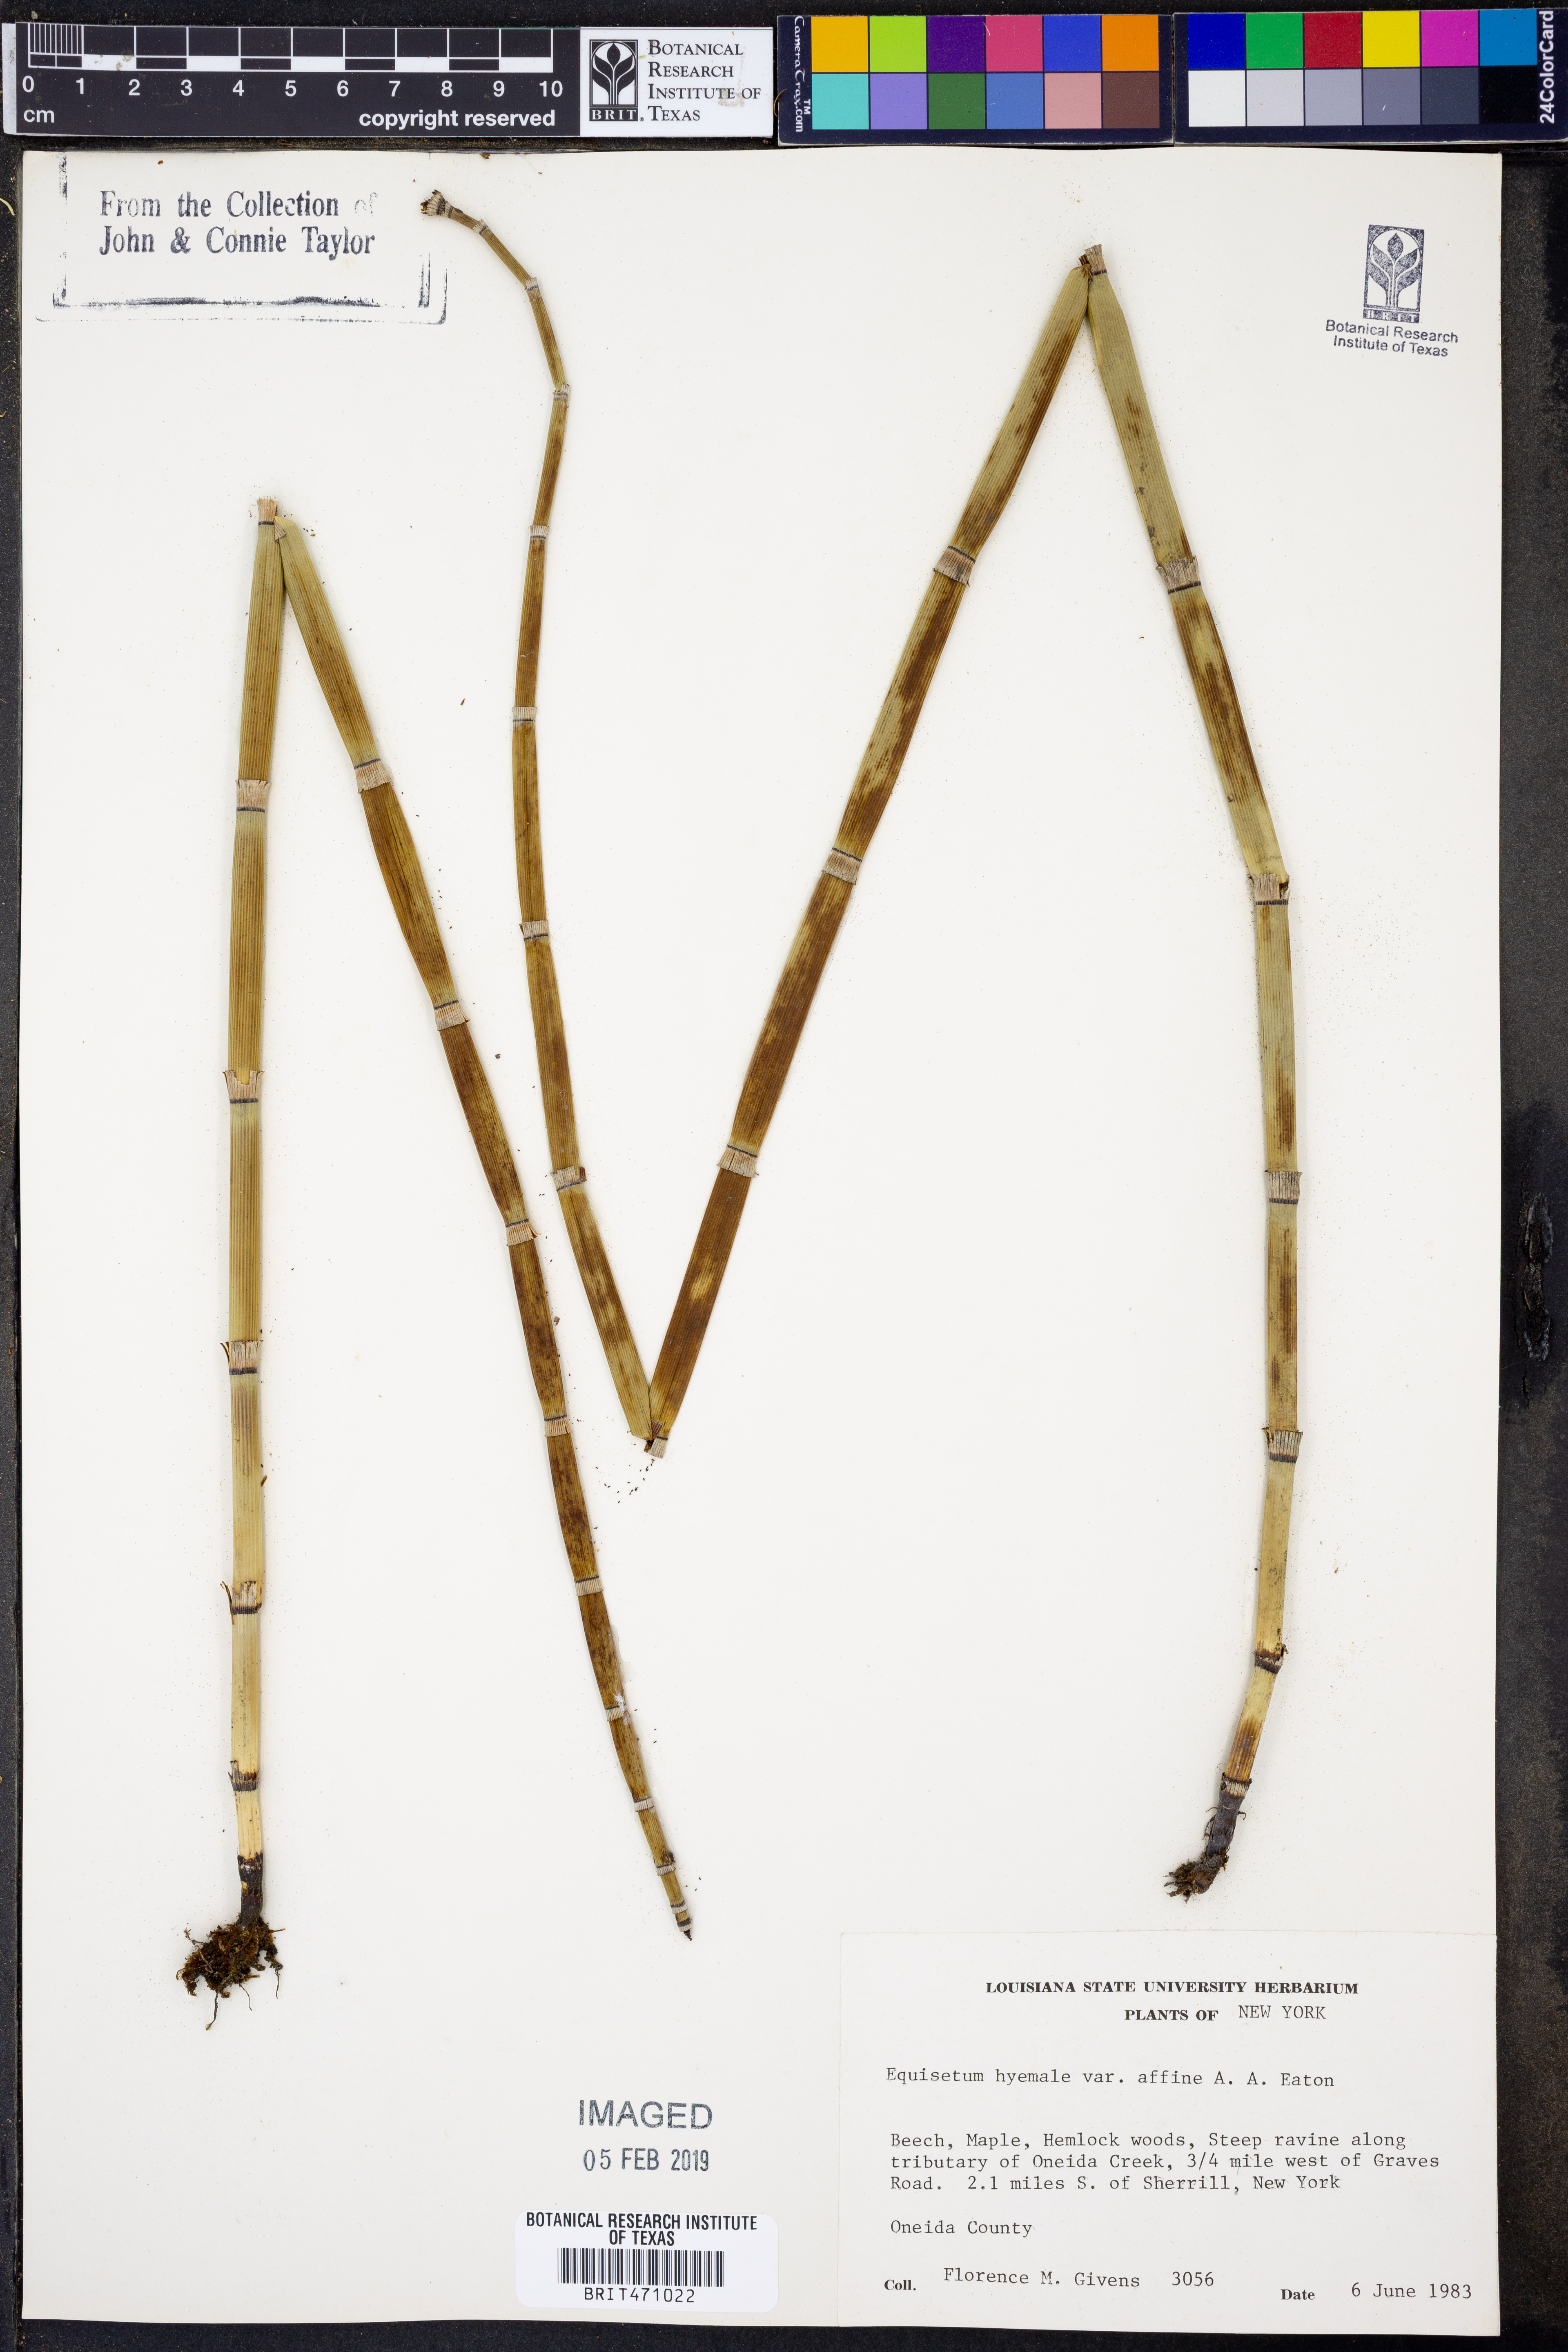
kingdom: Plantae
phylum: Tracheophyta
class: Polypodiopsida
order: Equisetales
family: Equisetaceae
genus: Equisetum
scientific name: Equisetum praealtum
